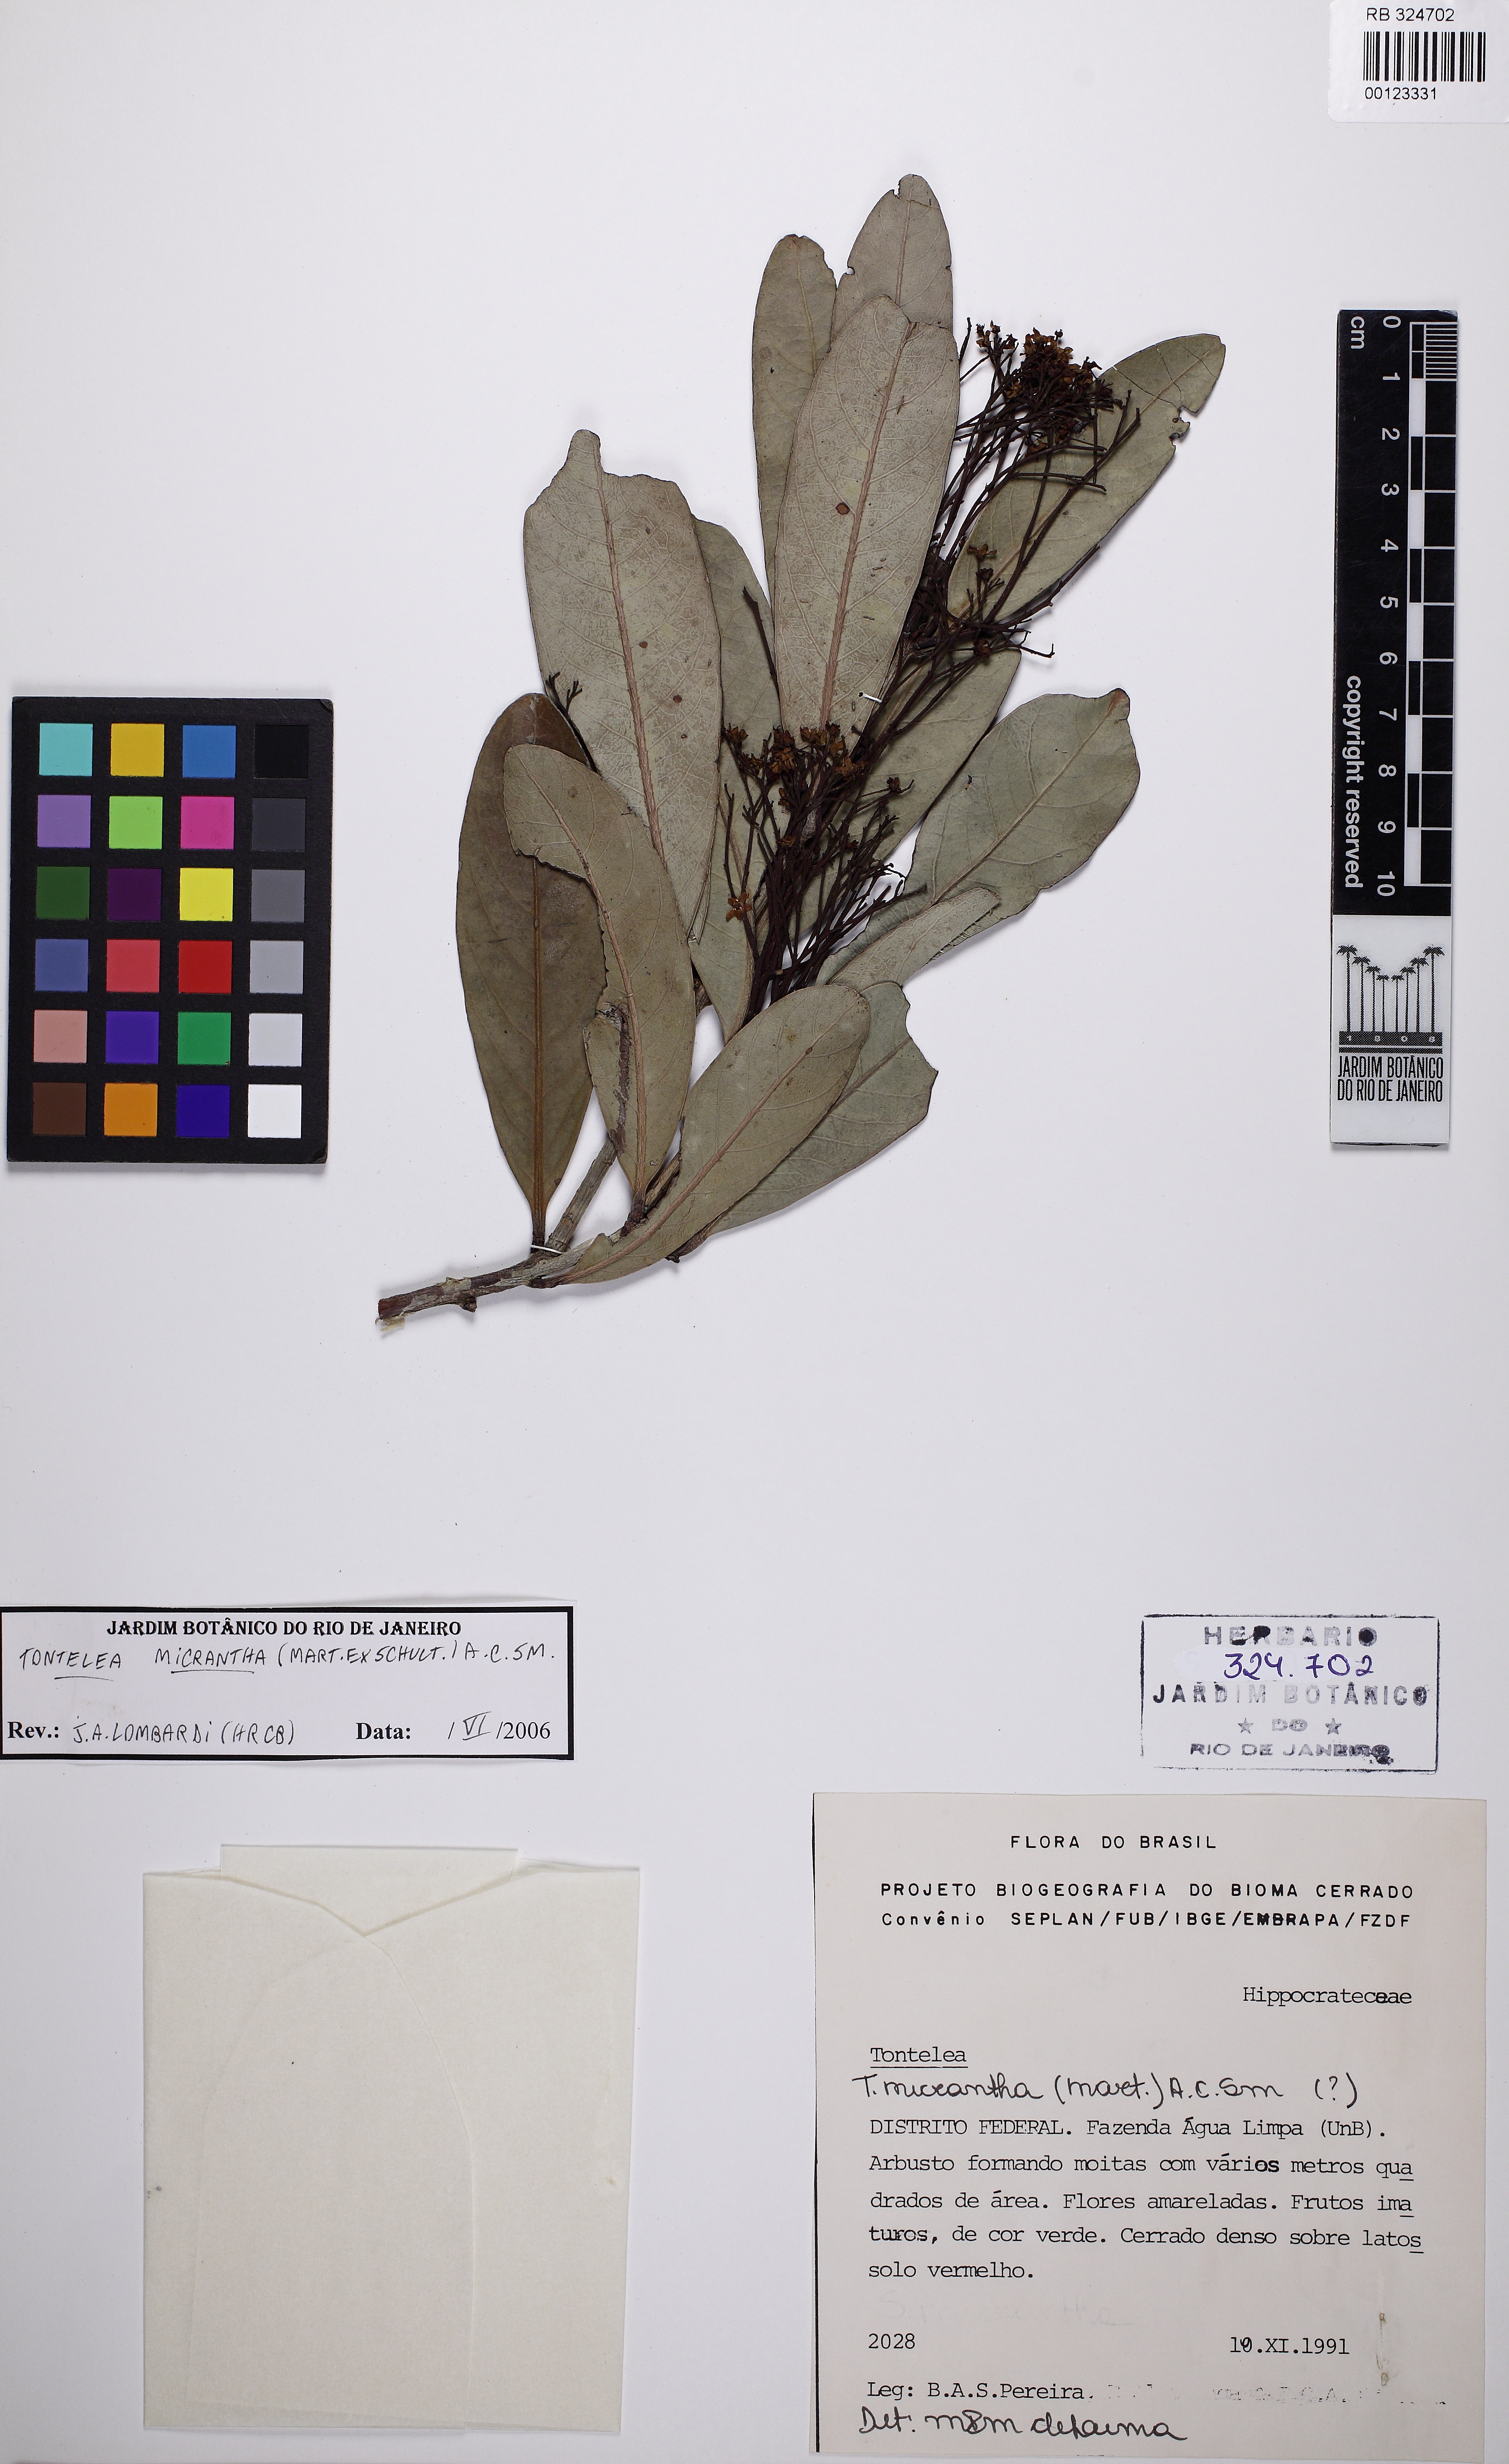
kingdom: Plantae
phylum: Tracheophyta
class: Magnoliopsida
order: Celastrales
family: Celastraceae
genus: Tontelea
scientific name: Tontelea micrantha
